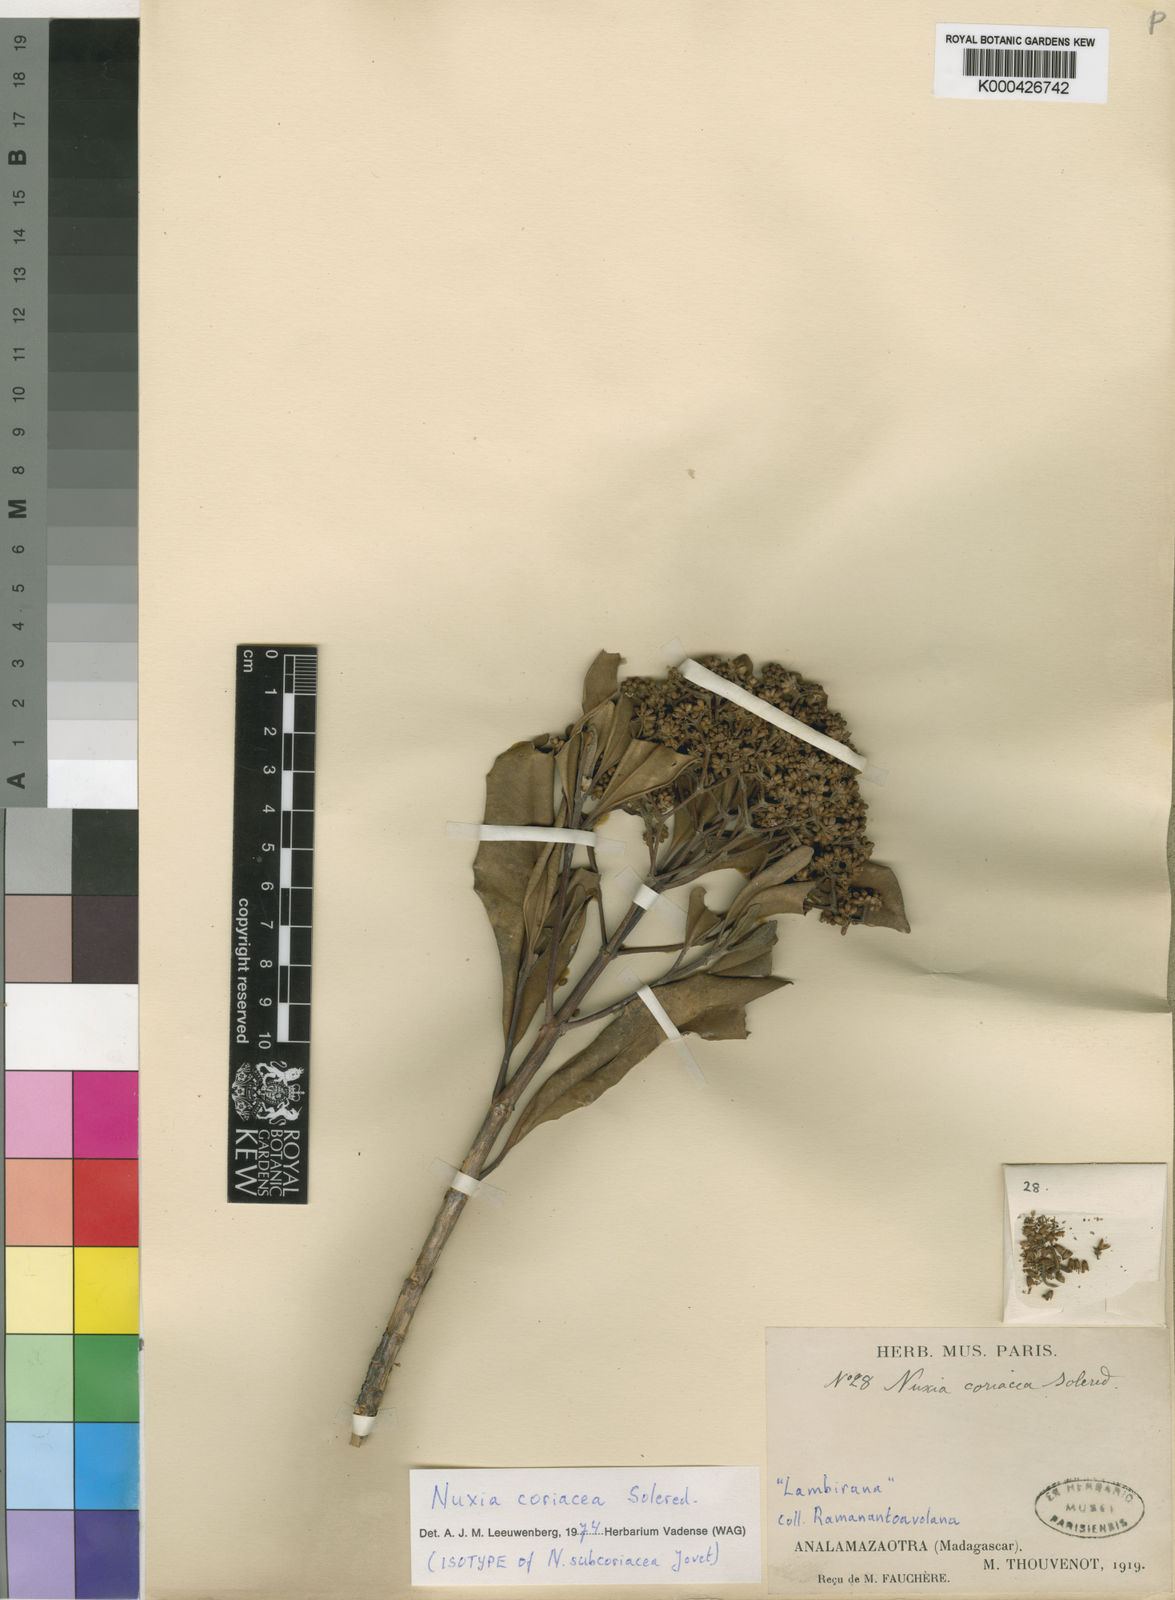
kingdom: Plantae
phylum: Tracheophyta
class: Magnoliopsida
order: Lamiales
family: Stilbaceae
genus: Nuxia
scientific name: Nuxia coriacea
